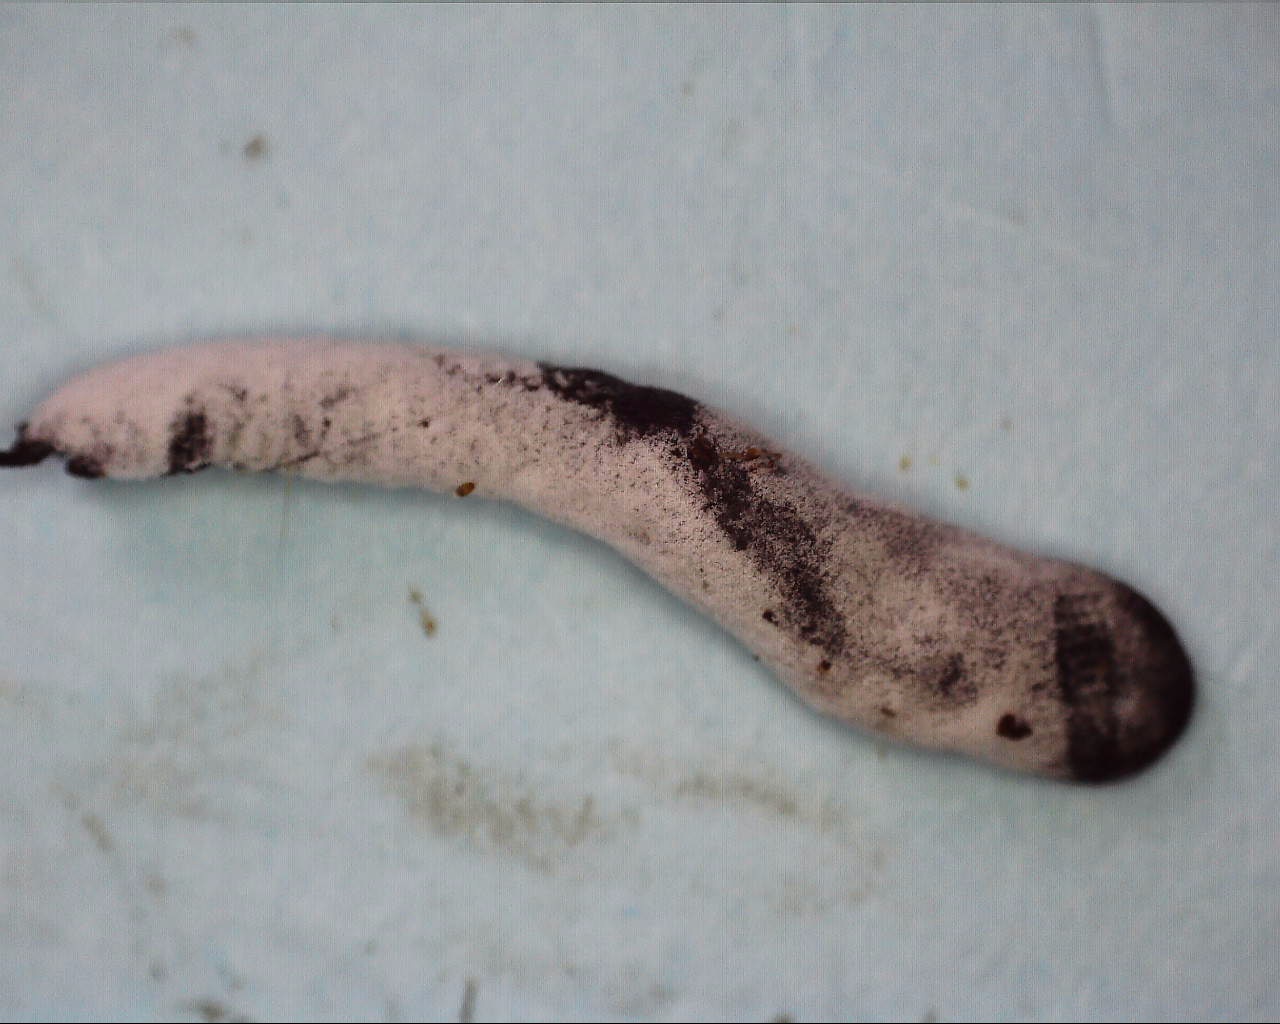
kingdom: Fungi
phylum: Ascomycota
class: Sordariomycetes
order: Hypocreales
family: Hypocreaceae
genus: Hypomyces
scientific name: Hypomyces papulasporae
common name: jordtunge-snylteskorpe
